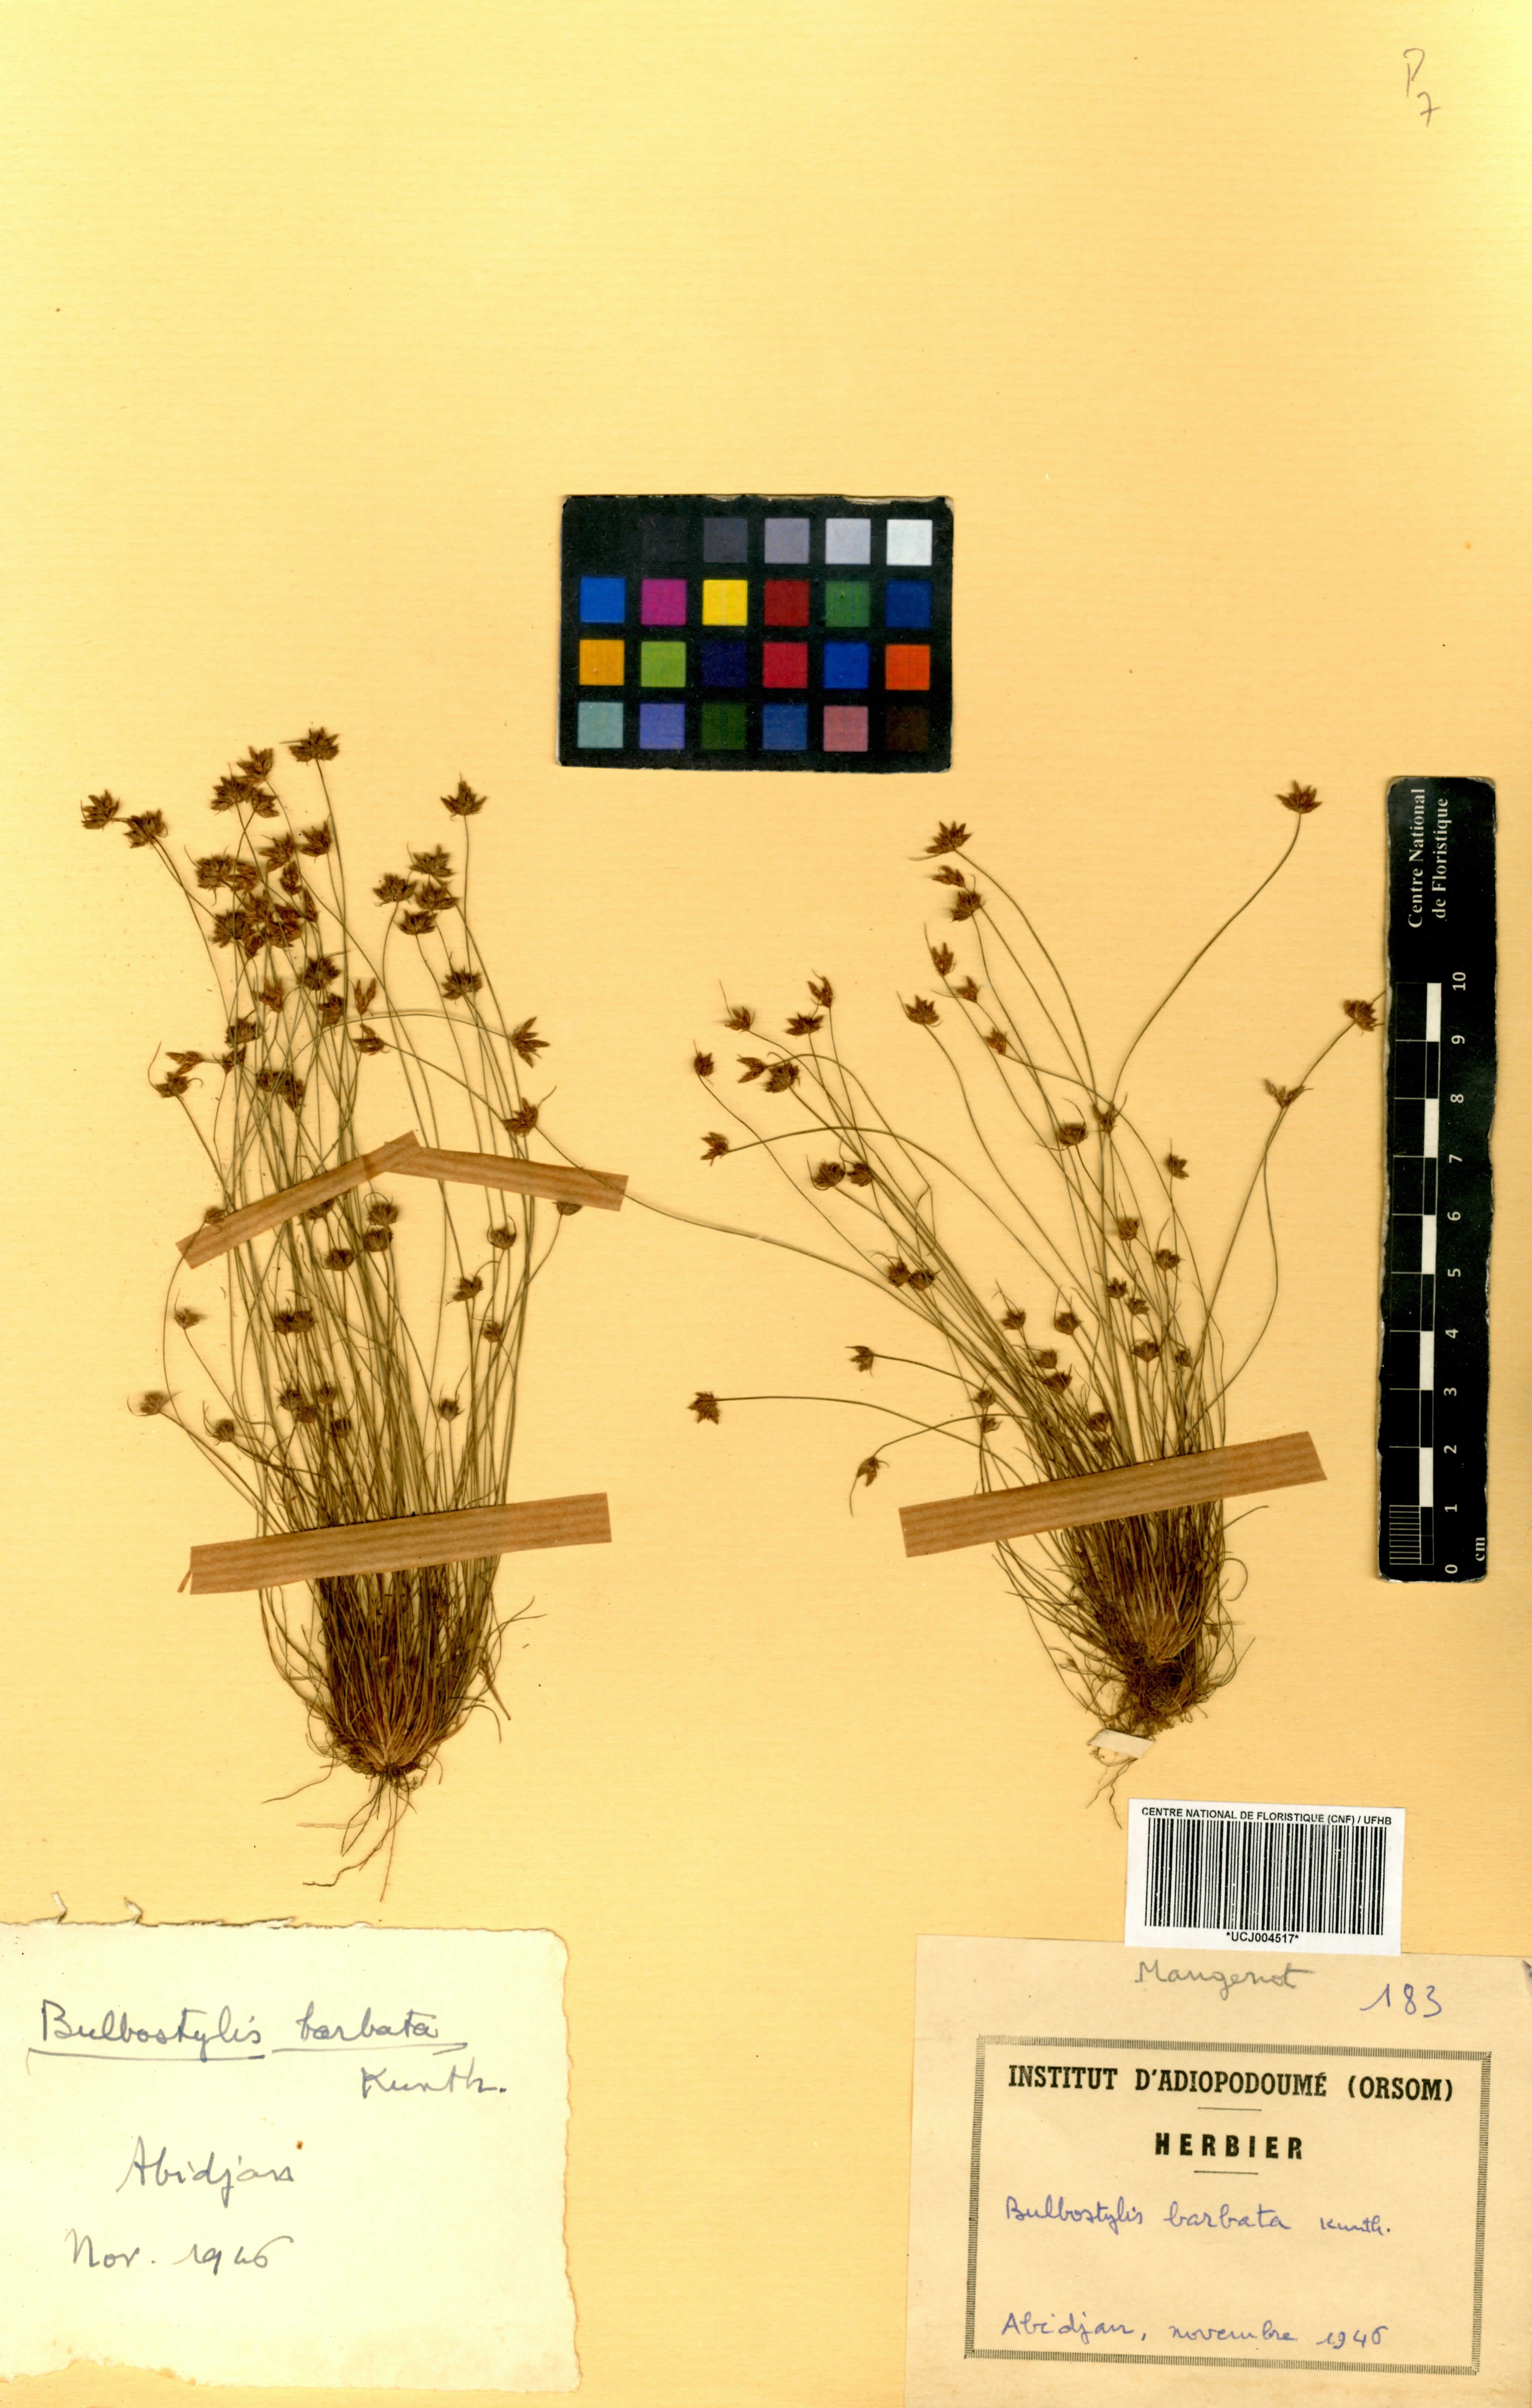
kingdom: Plantae
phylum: Tracheophyta
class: Liliopsida
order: Poales
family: Cyperaceae
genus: Bulbostylis
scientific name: Bulbostylis barbata
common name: Watergrass
